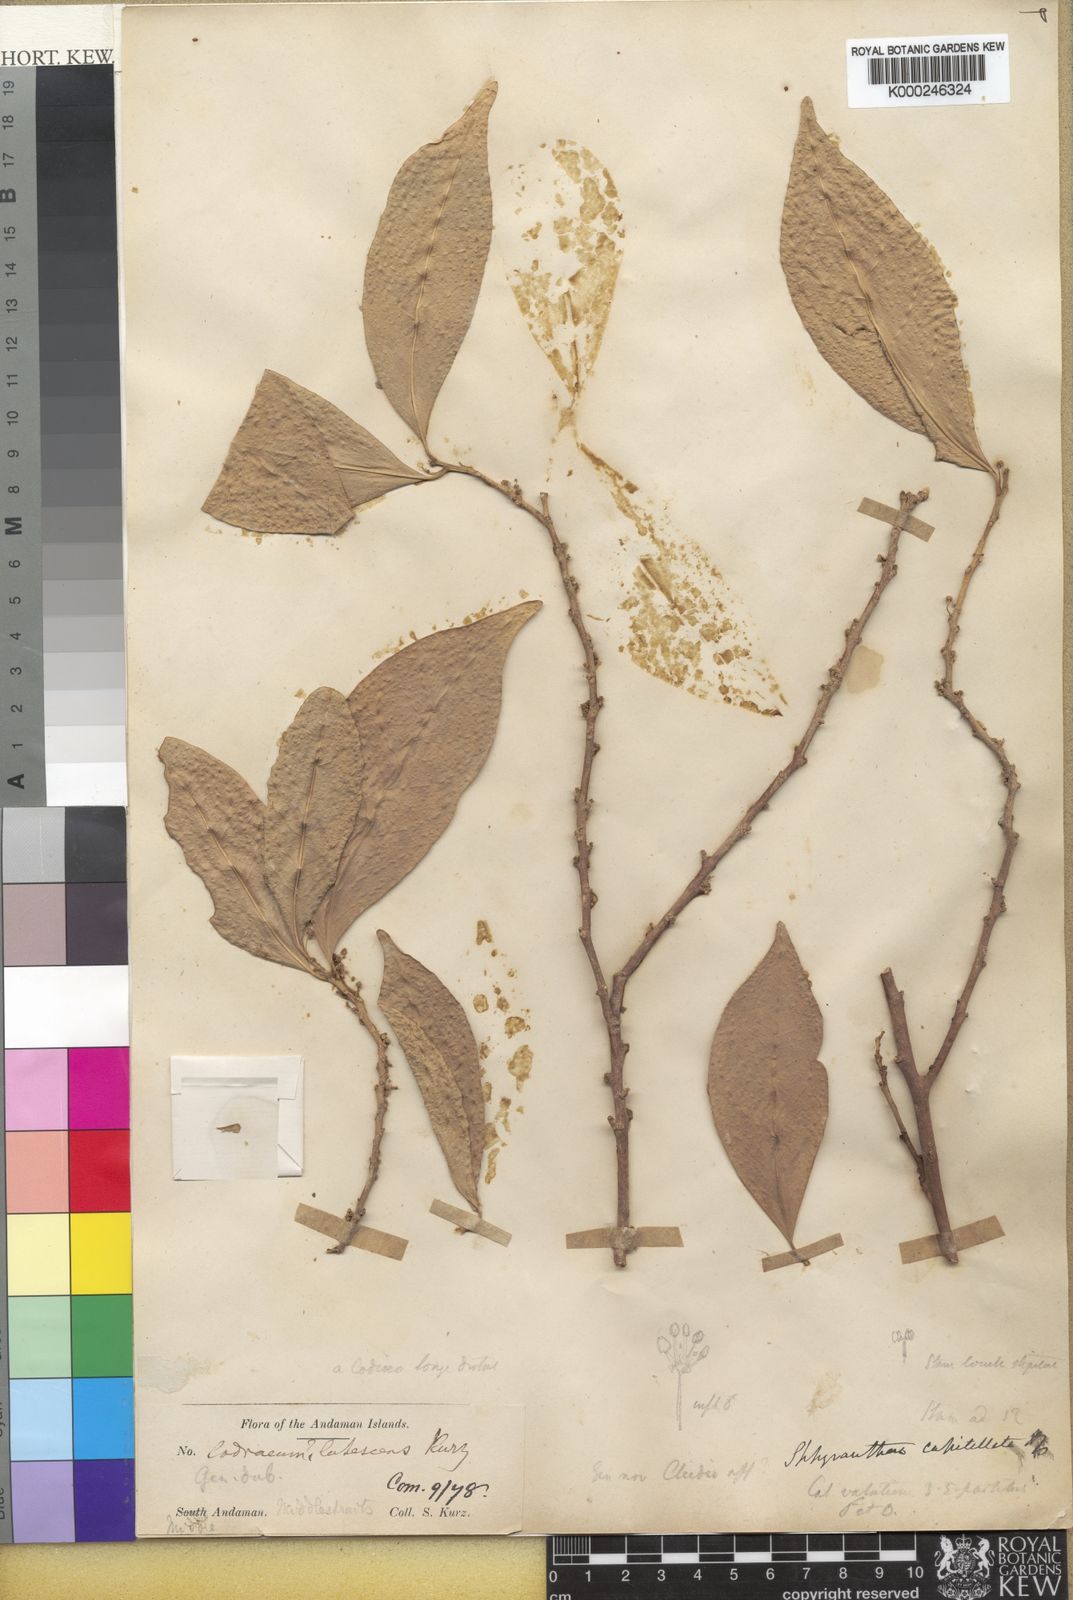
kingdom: Plantae
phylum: Tracheophyta
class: Magnoliopsida
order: Malpighiales
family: Euphorbiaceae
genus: Sphyranthera
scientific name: Sphyranthera lutescens
